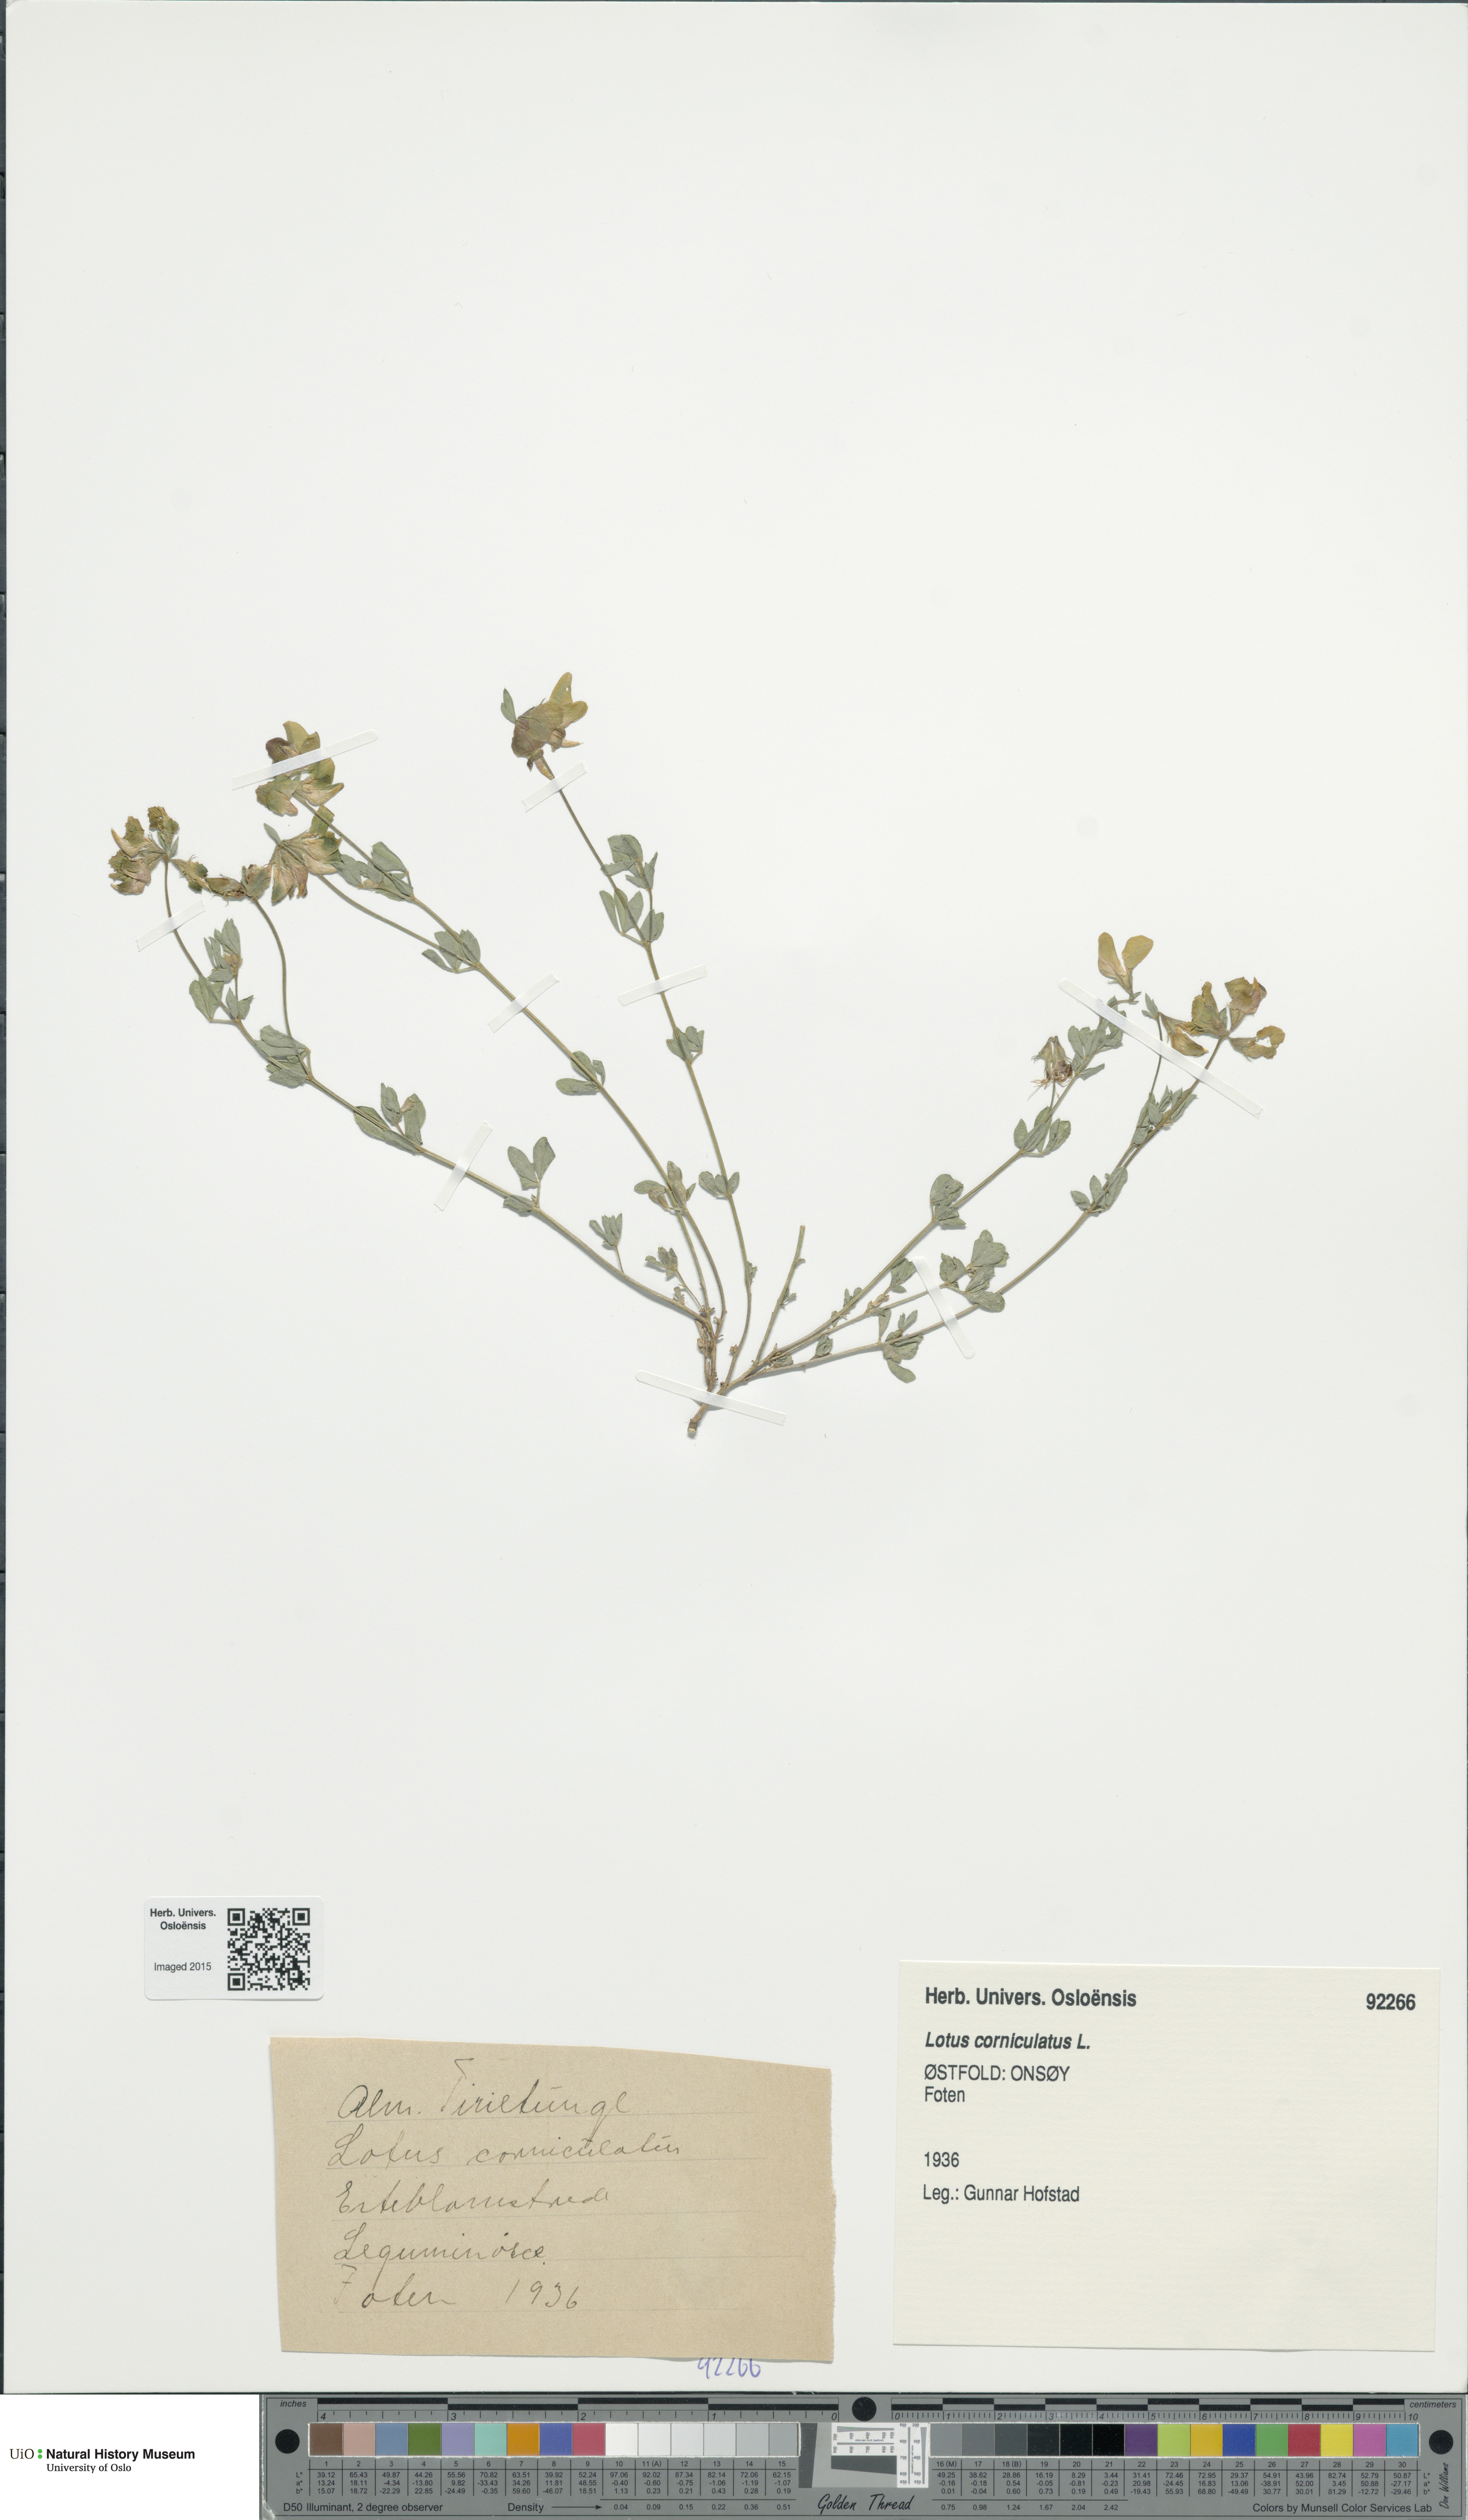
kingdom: Plantae
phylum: Tracheophyta
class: Magnoliopsida
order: Fabales
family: Fabaceae
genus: Lotus
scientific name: Lotus corniculatus
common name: Common bird's-foot-trefoil
